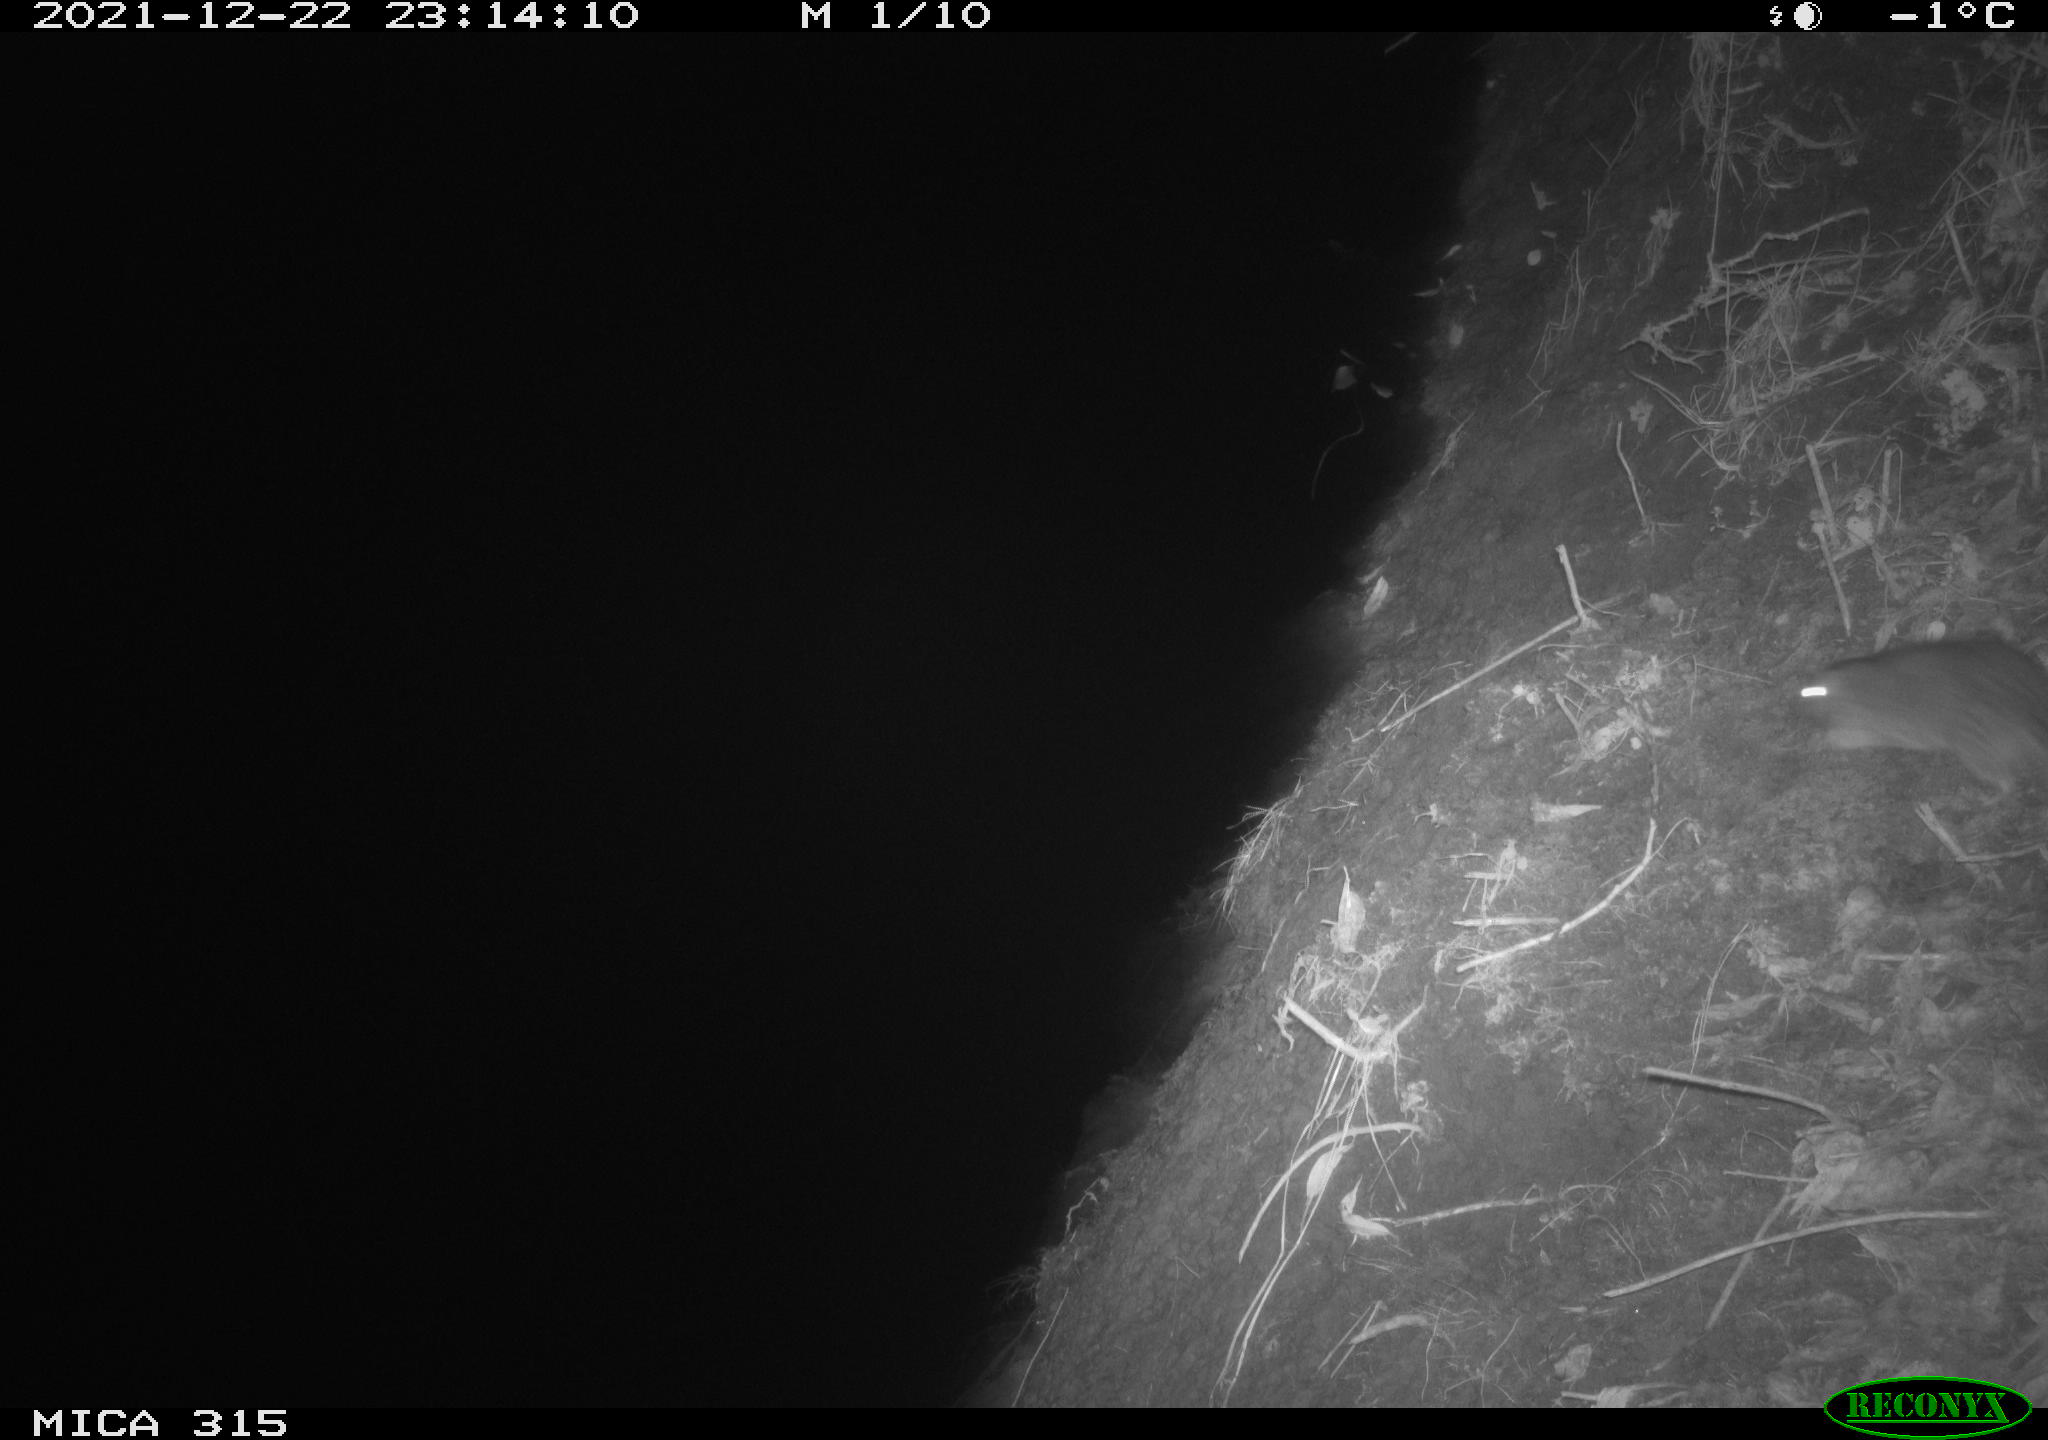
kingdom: Animalia
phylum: Chordata
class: Mammalia
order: Rodentia
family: Muridae
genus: Rattus
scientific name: Rattus norvegicus
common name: Brown rat
